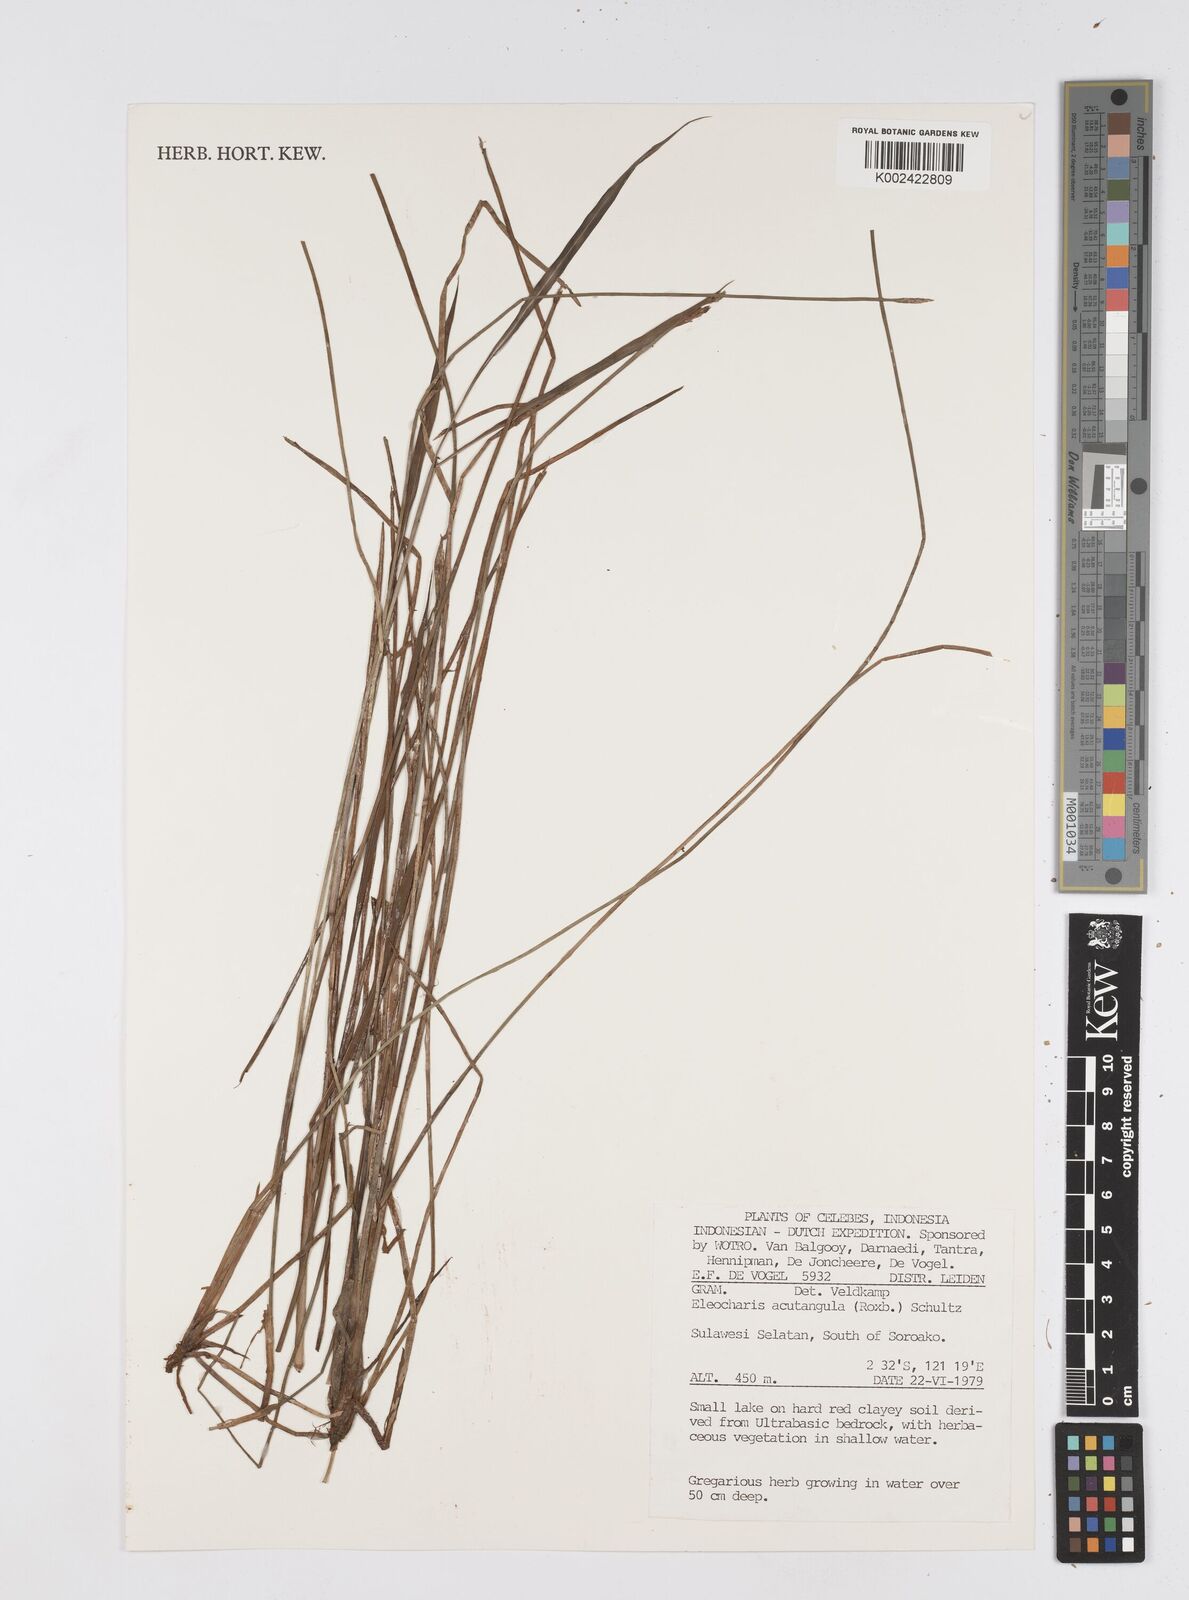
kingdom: Plantae
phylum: Tracheophyta
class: Liliopsida
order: Poales
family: Cyperaceae
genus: Eleocharis
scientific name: Eleocharis acutangula
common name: Acute spikerush
